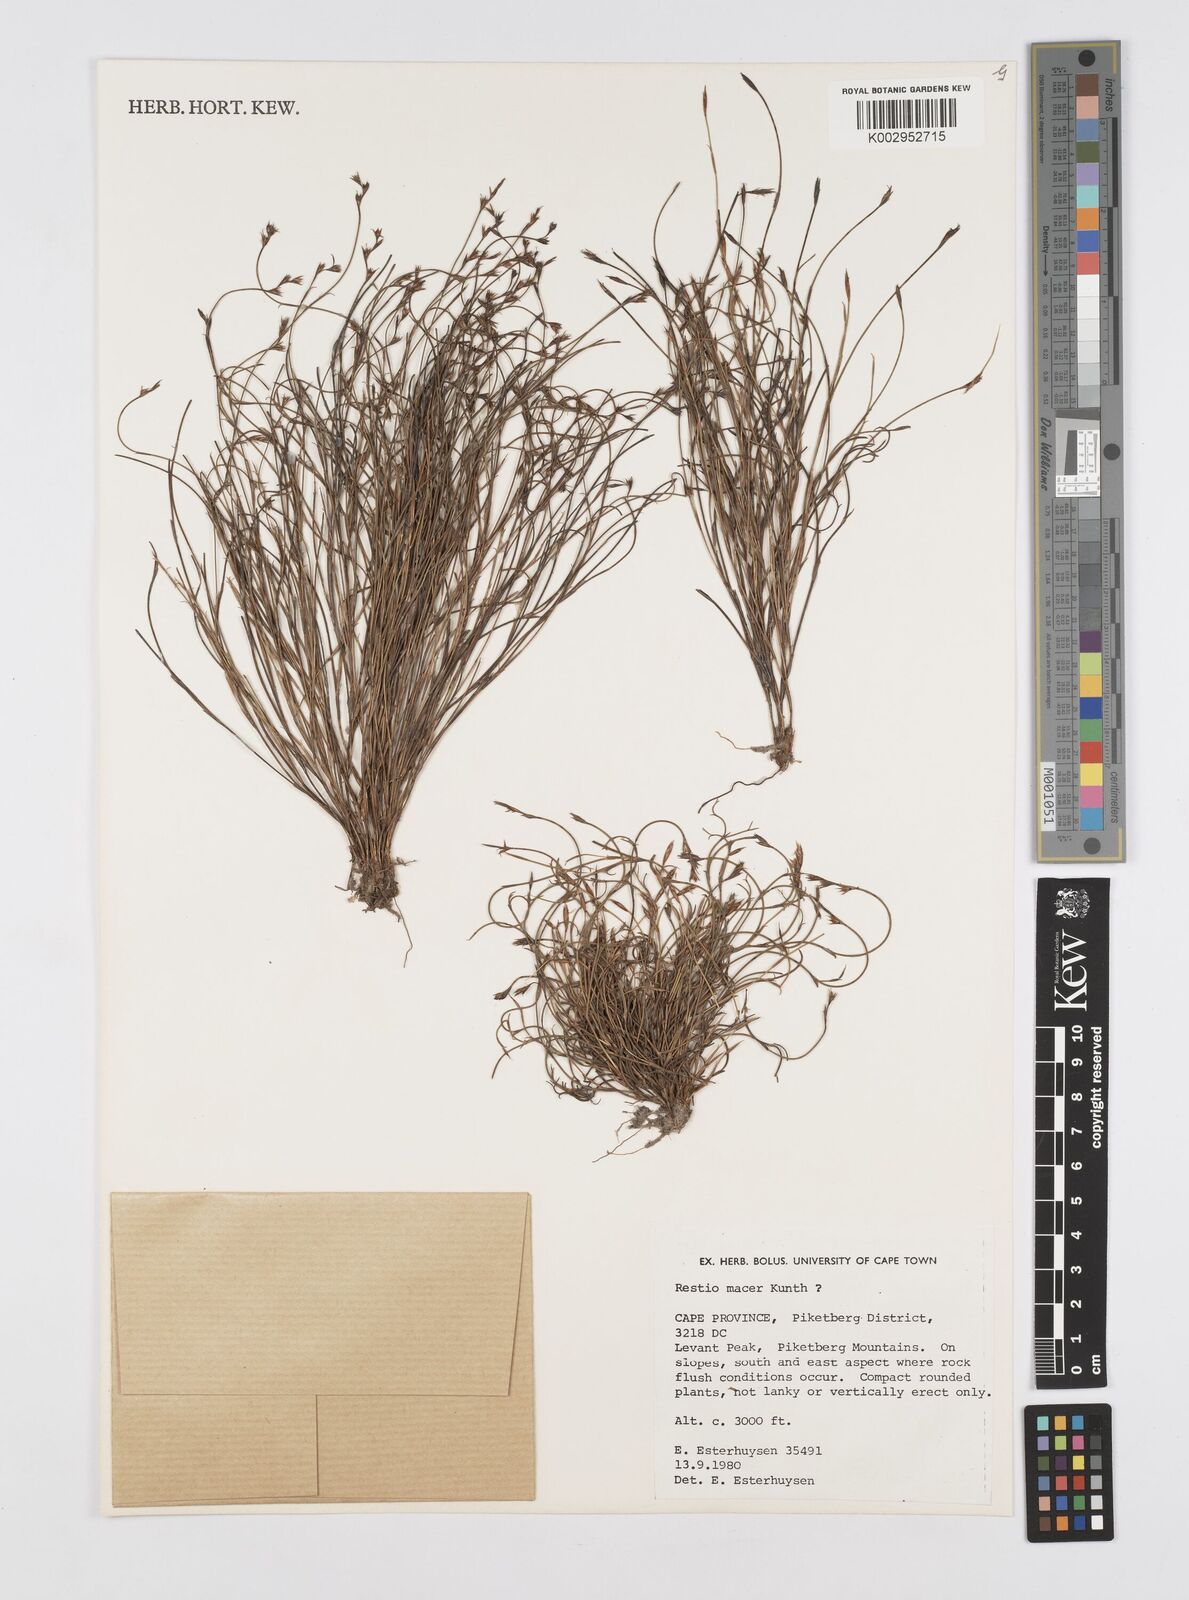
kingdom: Plantae
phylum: Tracheophyta
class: Liliopsida
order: Poales
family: Restionaceae
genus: Restio
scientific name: Restio macer
